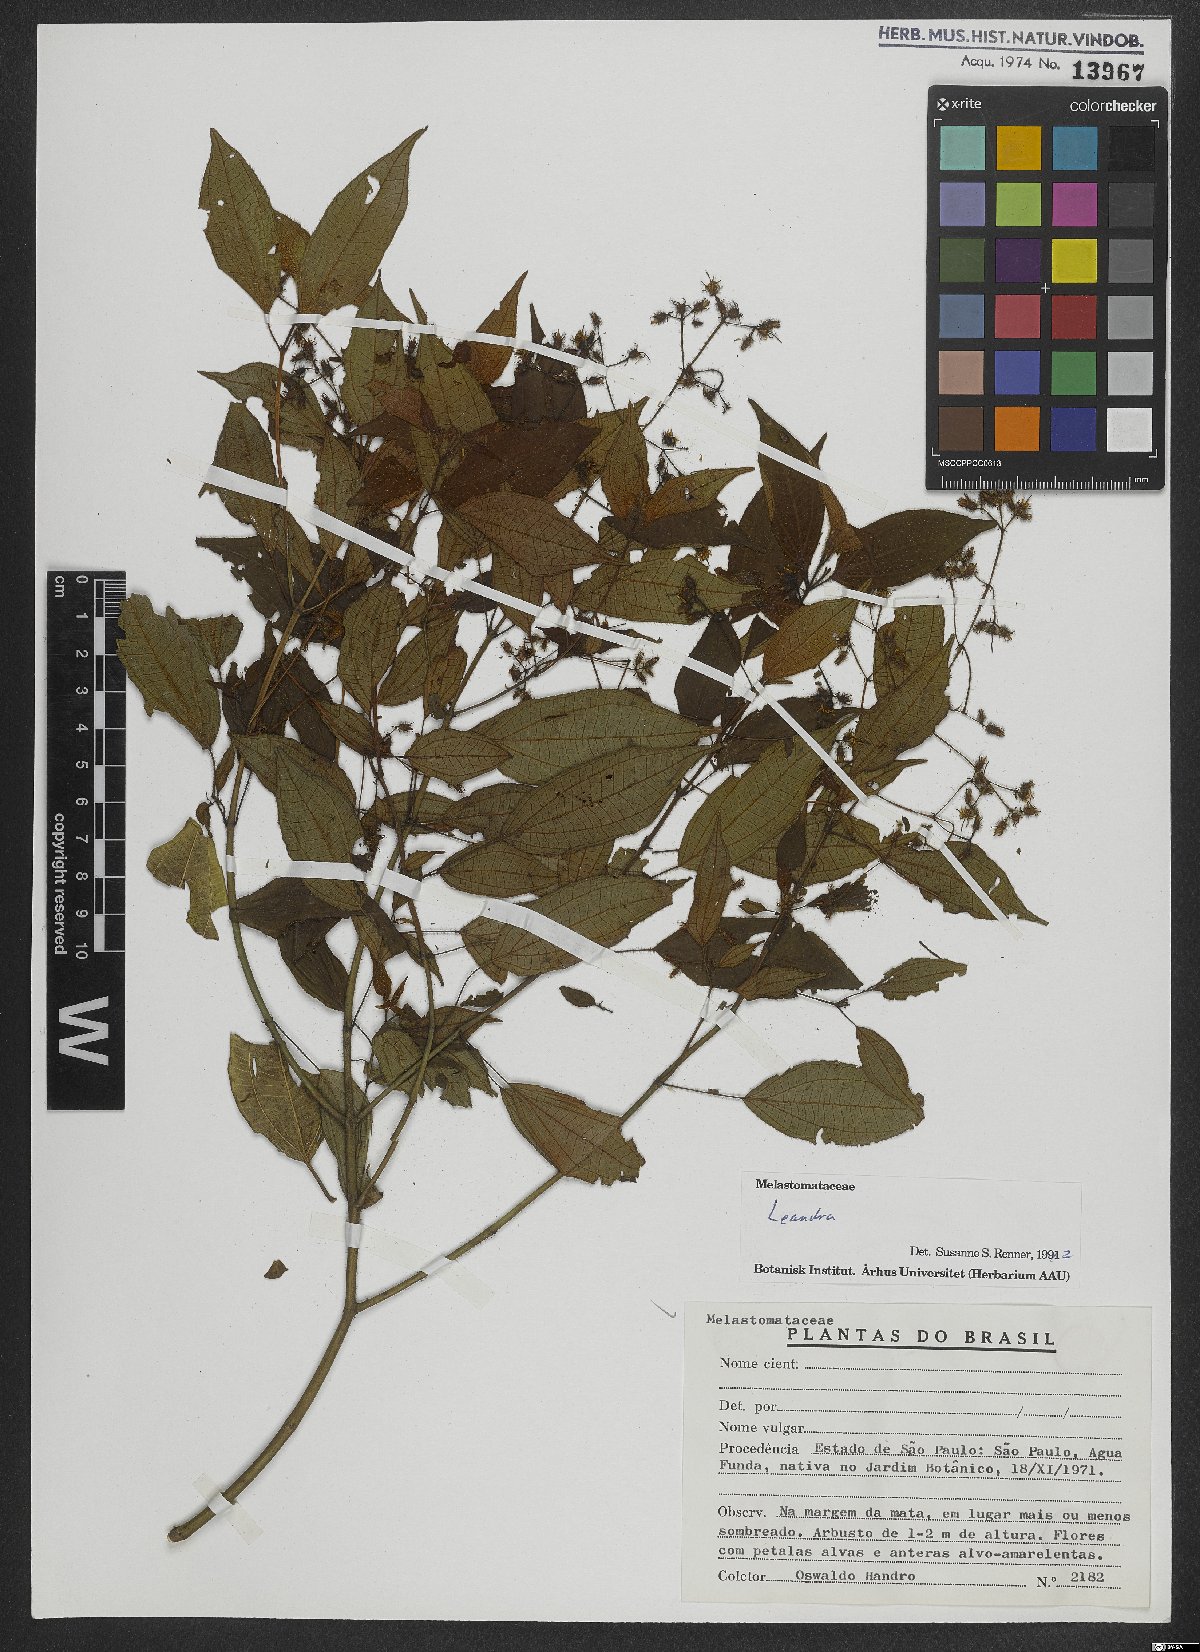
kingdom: Plantae
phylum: Tracheophyta
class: Magnoliopsida
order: Myrtales
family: Melastomataceae
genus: Miconia
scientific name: Miconia
